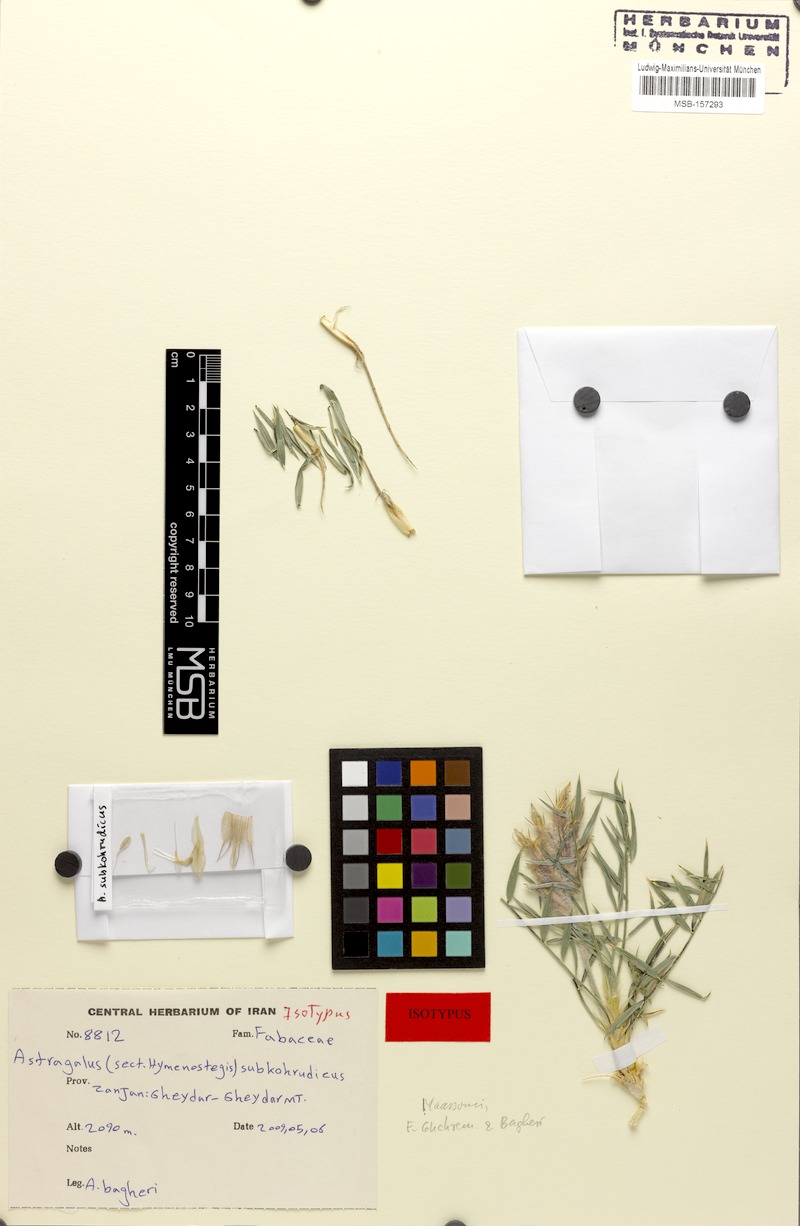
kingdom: Plantae
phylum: Tracheophyta
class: Magnoliopsida
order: Fabales
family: Fabaceae
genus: Astragalus
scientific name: Astragalus subkohrudicus
